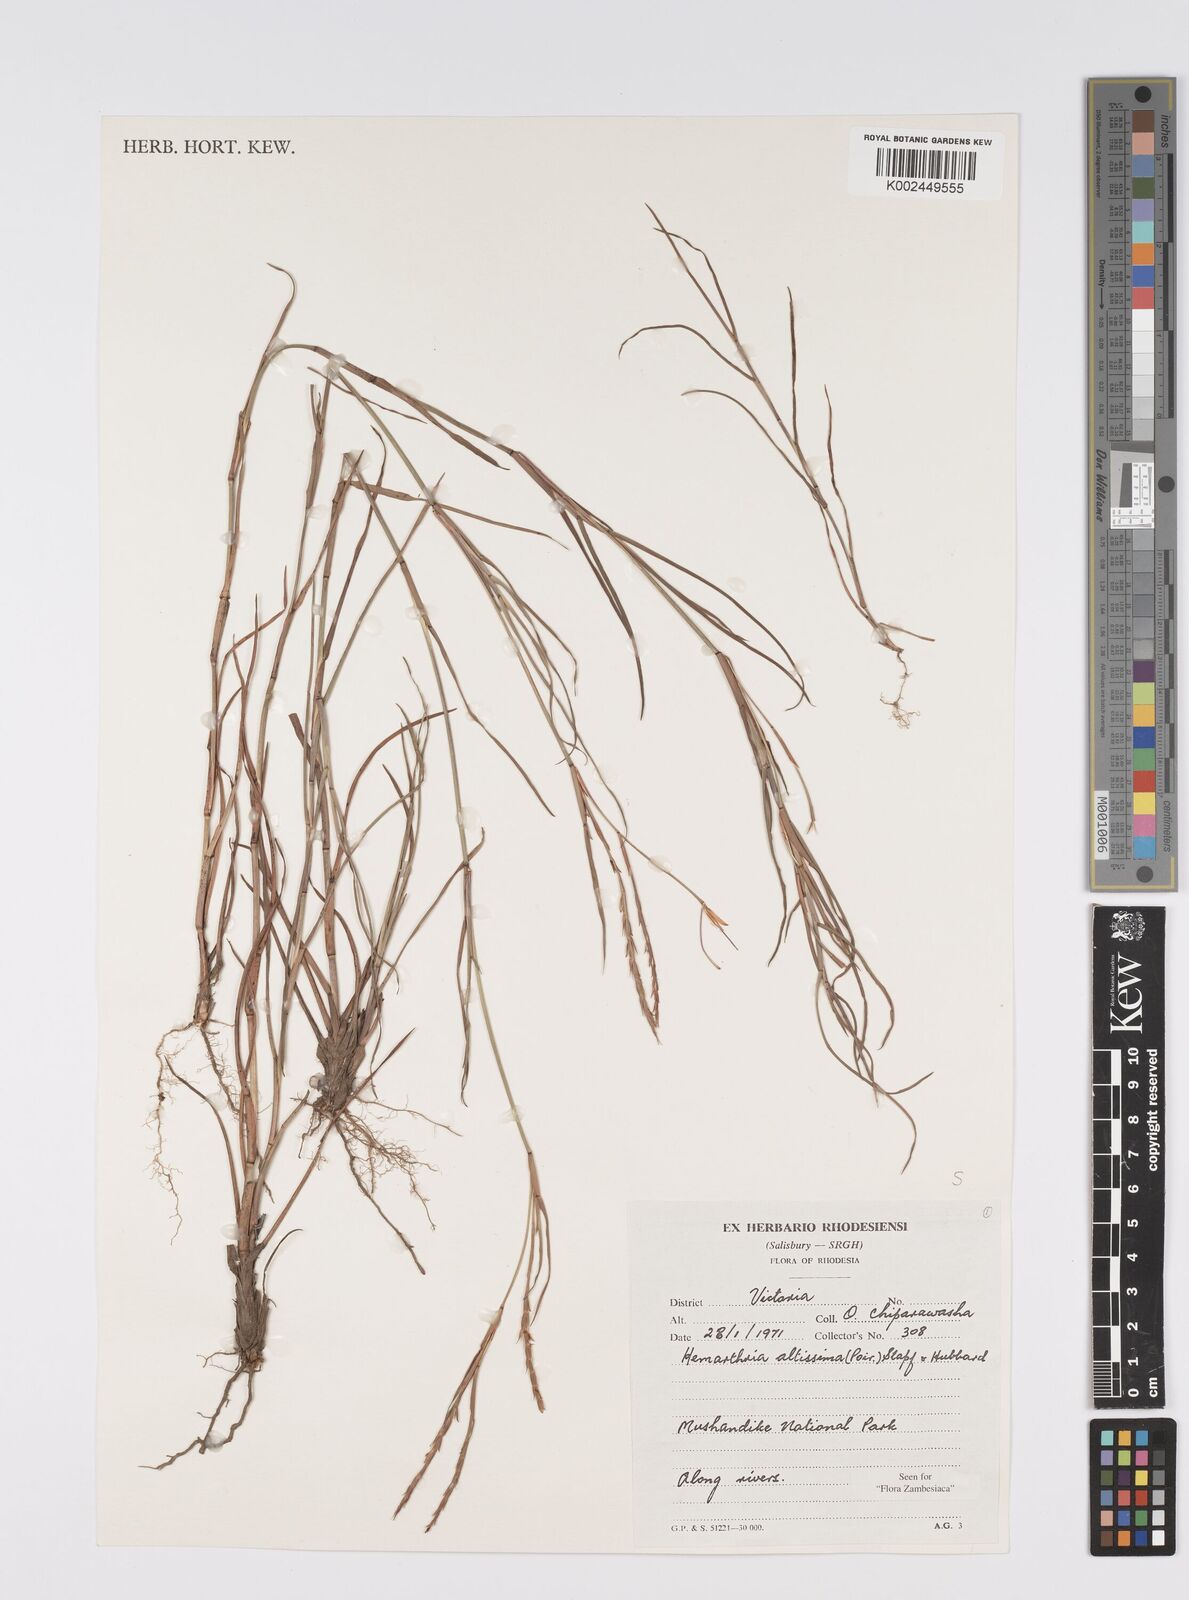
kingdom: Plantae
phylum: Tracheophyta
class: Liliopsida
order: Poales
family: Poaceae
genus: Hemarthria
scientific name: Hemarthria altissima
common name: African jointgrass
